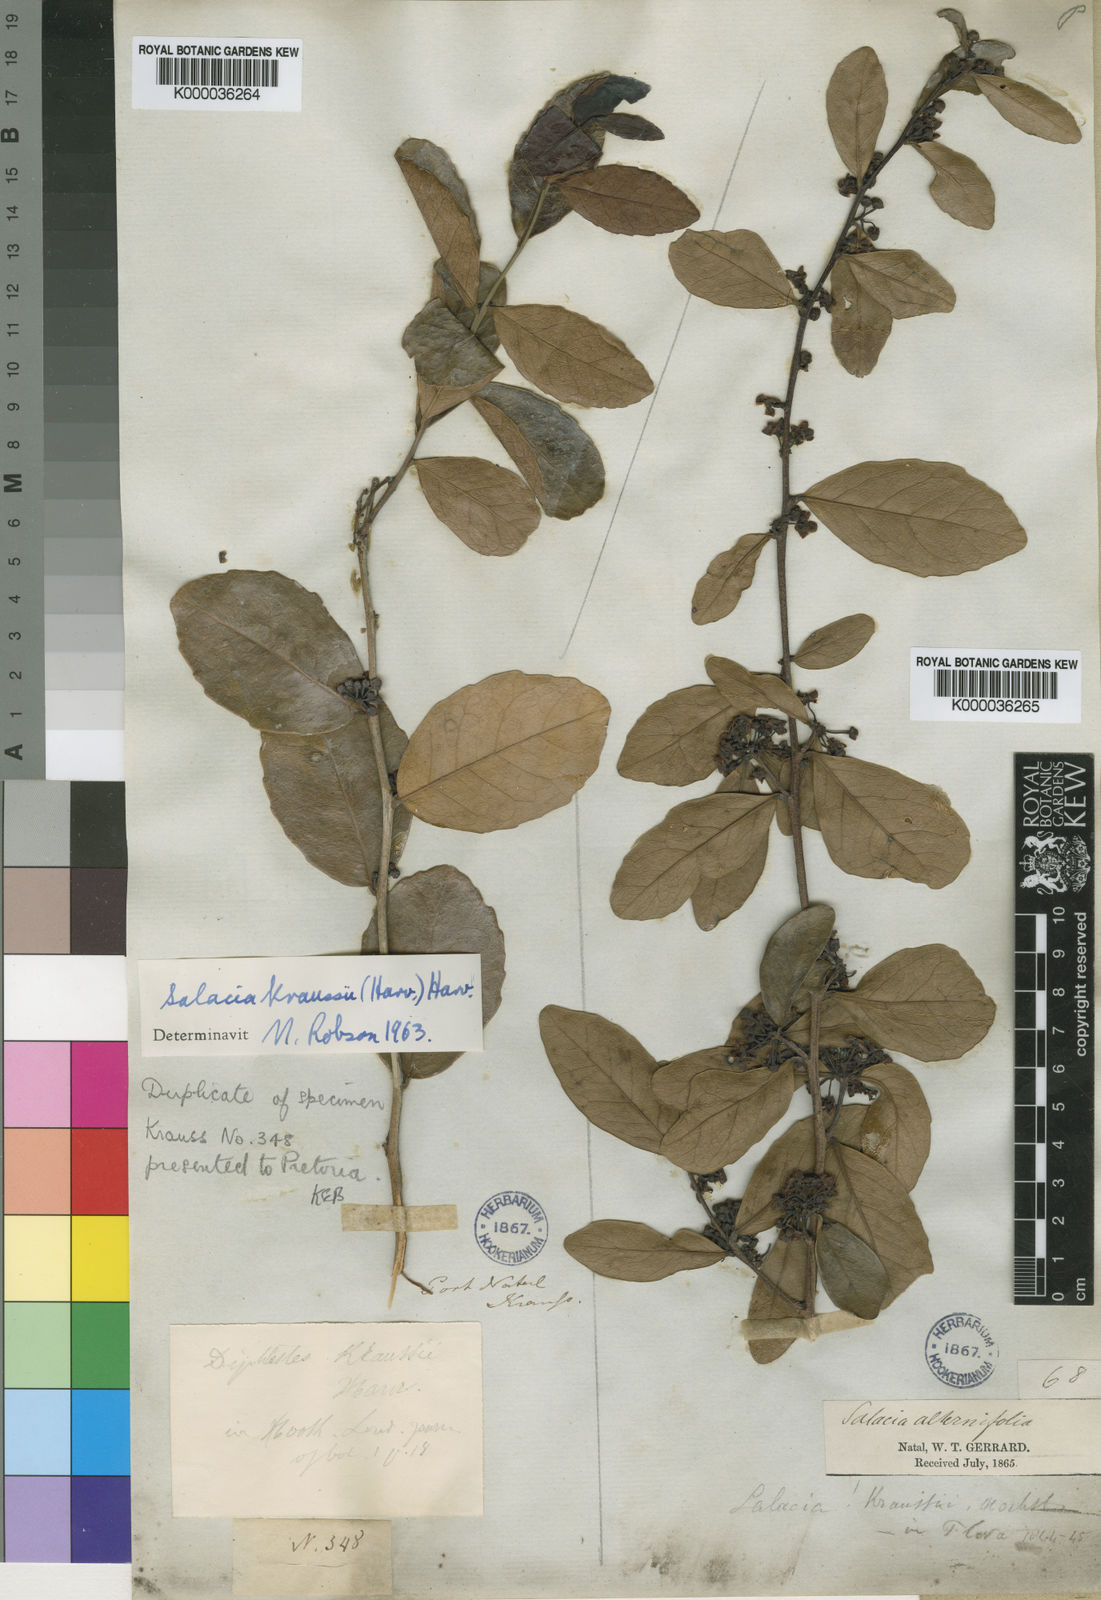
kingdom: Plantae
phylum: Tracheophyta
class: Magnoliopsida
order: Celastrales
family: Celastraceae
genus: Salacia
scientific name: Salacia kraussii
